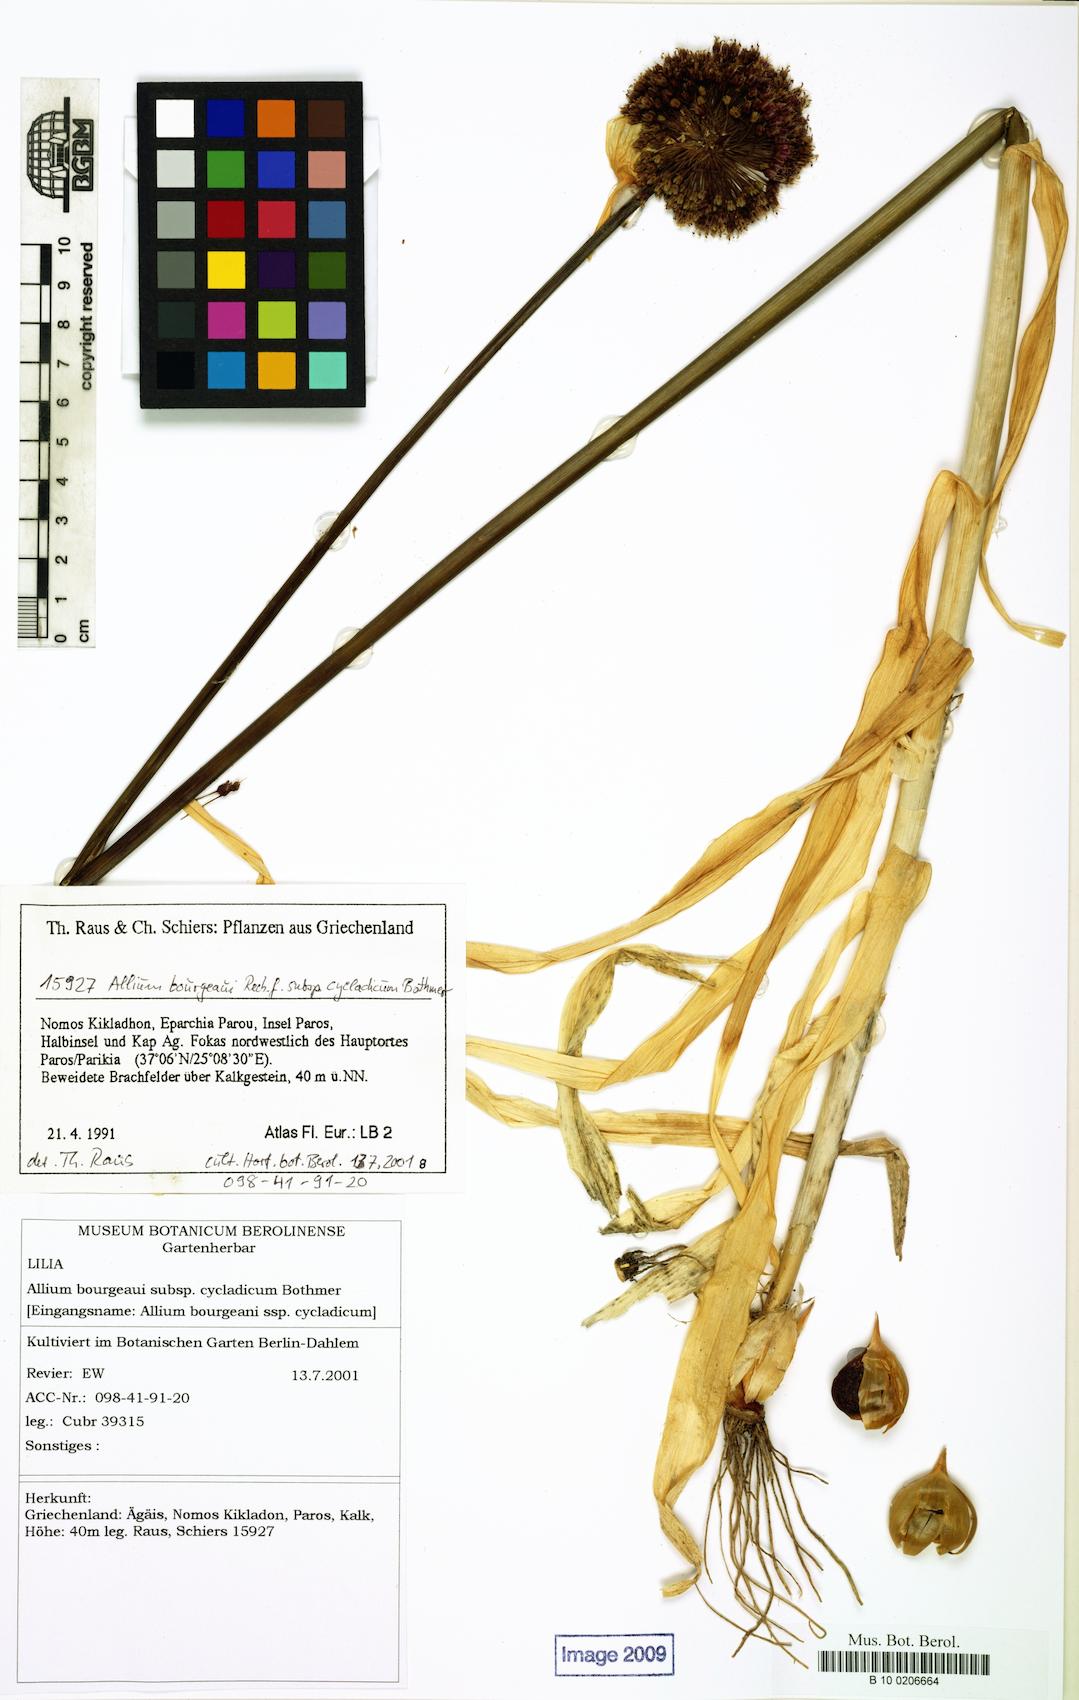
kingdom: Plantae
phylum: Tracheophyta
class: Liliopsida
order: Liliales
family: Liliaceae
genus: Allium
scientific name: Allium
